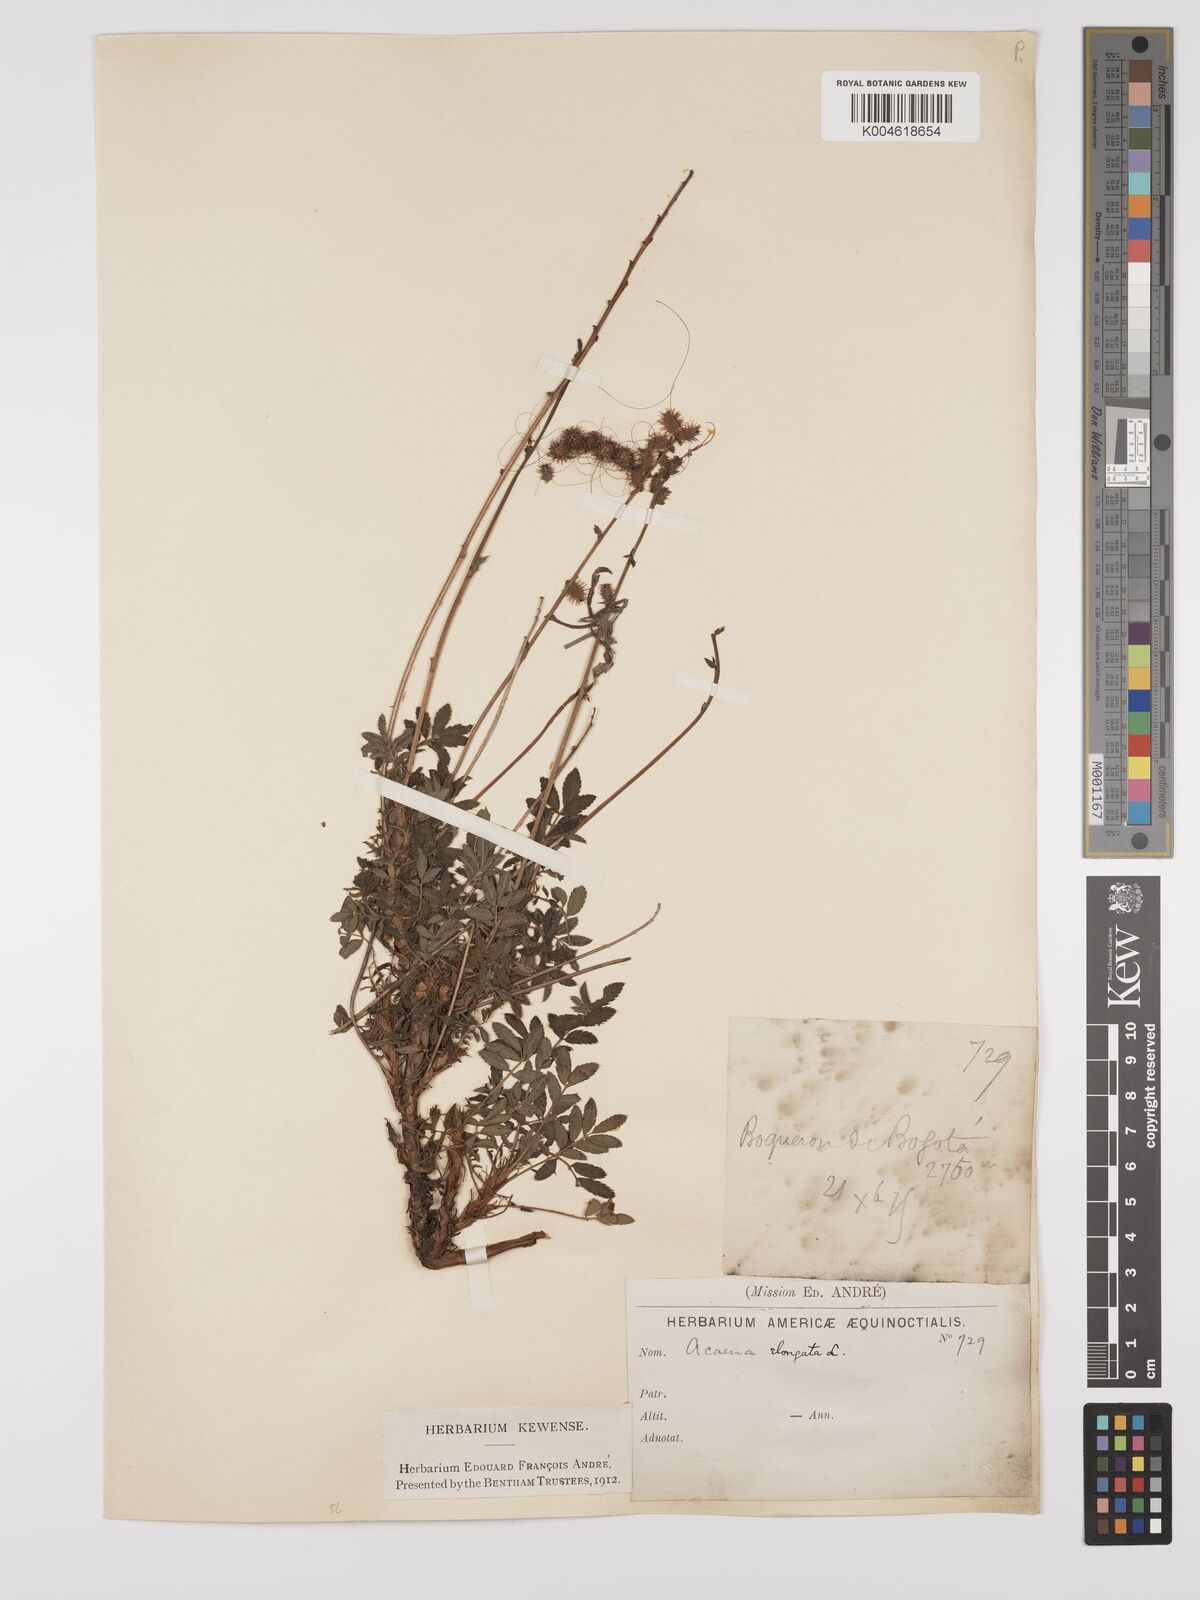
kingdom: Plantae
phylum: Tracheophyta
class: Magnoliopsida
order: Rosales
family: Rosaceae
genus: Acaena
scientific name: Acaena elongata
